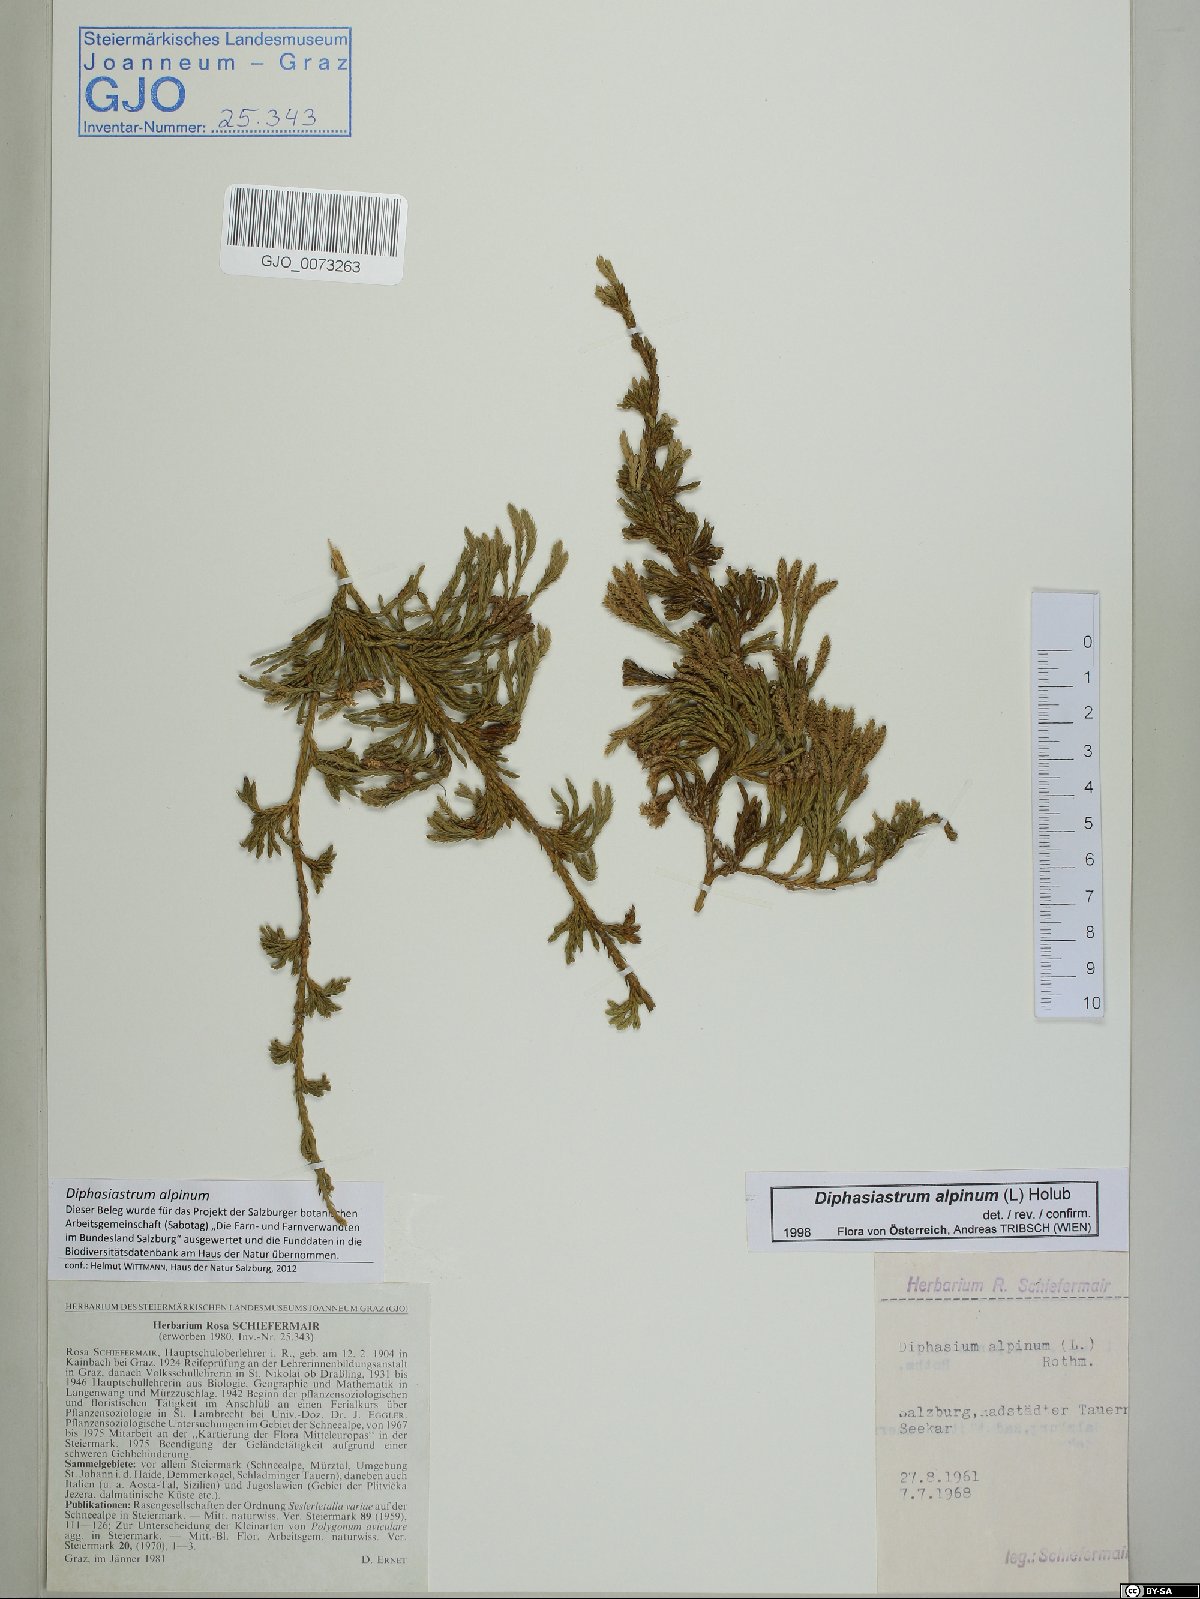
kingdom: Plantae
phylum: Tracheophyta
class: Lycopodiopsida
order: Lycopodiales
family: Lycopodiaceae
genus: Diphasiastrum
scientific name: Diphasiastrum alpinum
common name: Alpine clubmoss
